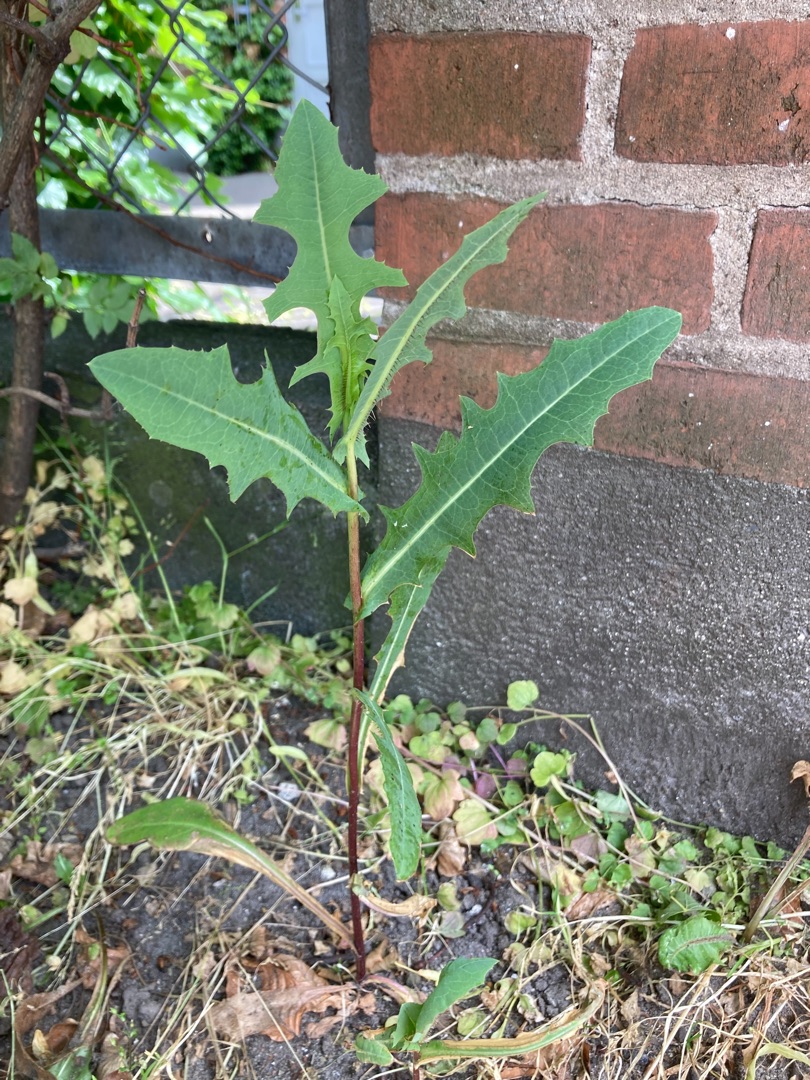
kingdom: Plantae
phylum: Tracheophyta
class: Magnoliopsida
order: Asterales
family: Asteraceae
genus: Lactuca
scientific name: Lactuca serriola
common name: Tornet salat
